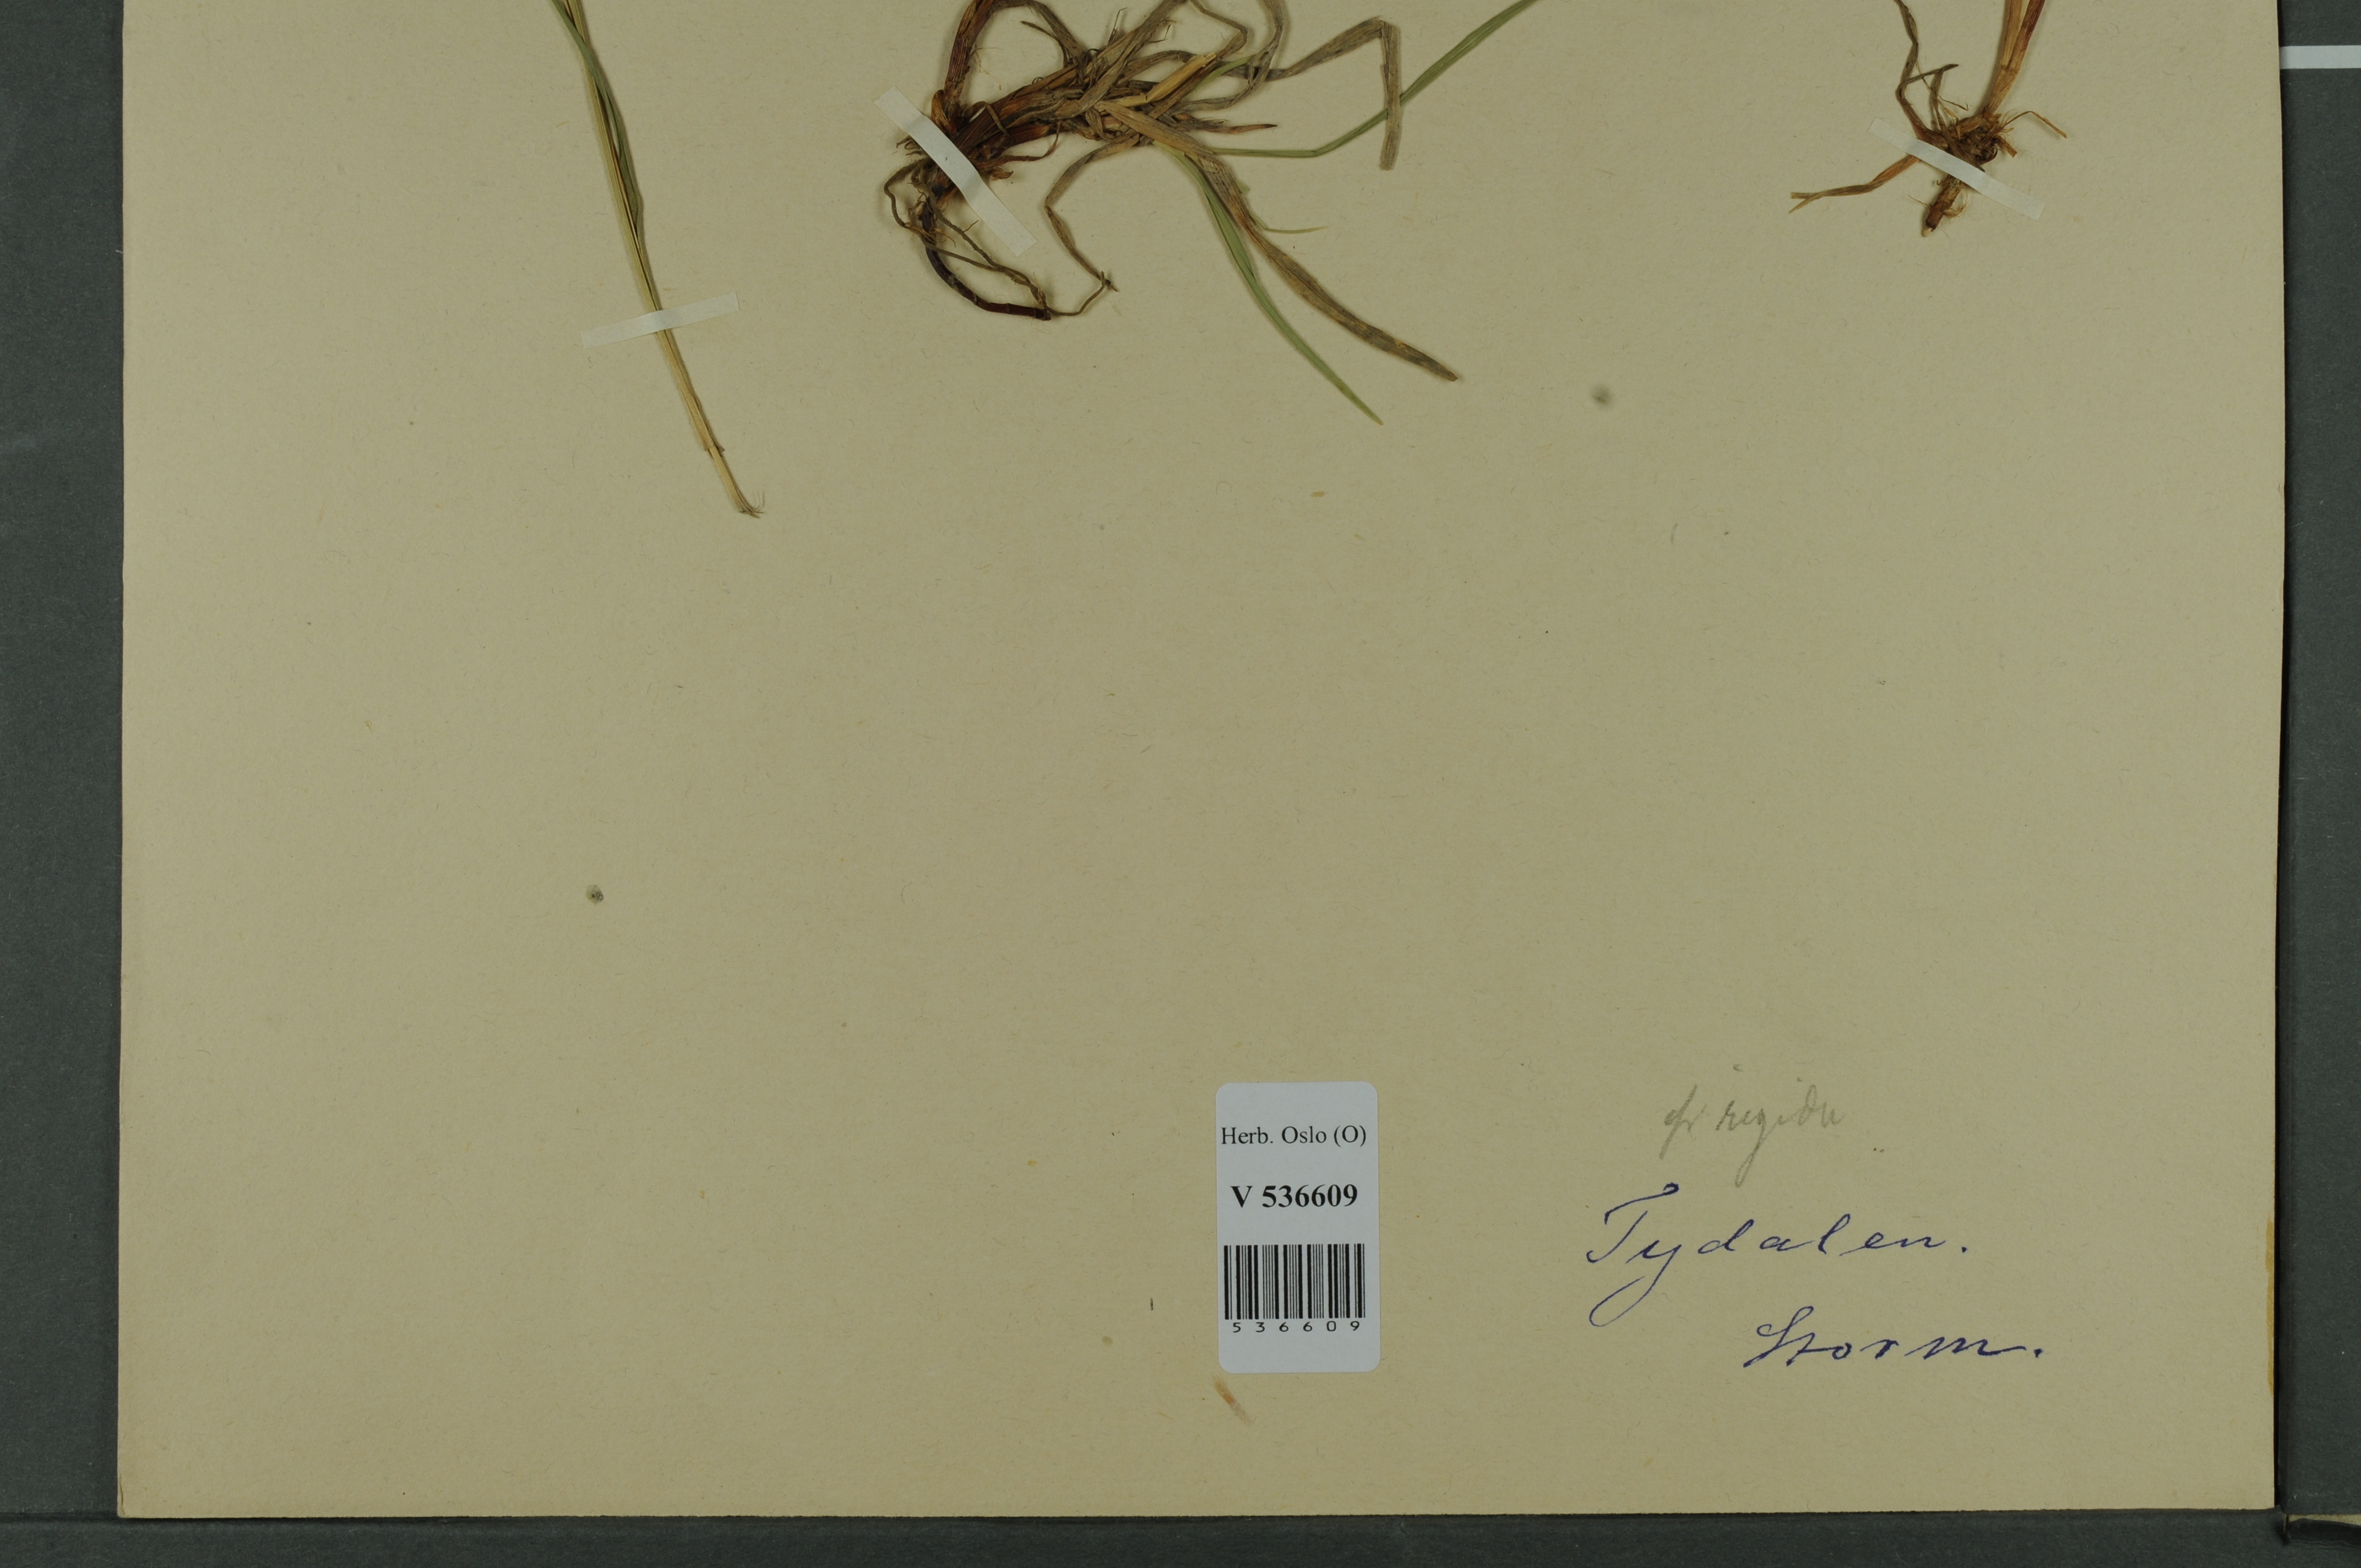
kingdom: Plantae
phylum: Tracheophyta
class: Liliopsida
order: Poales
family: Cyperaceae
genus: Carex
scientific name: Carex dacica
